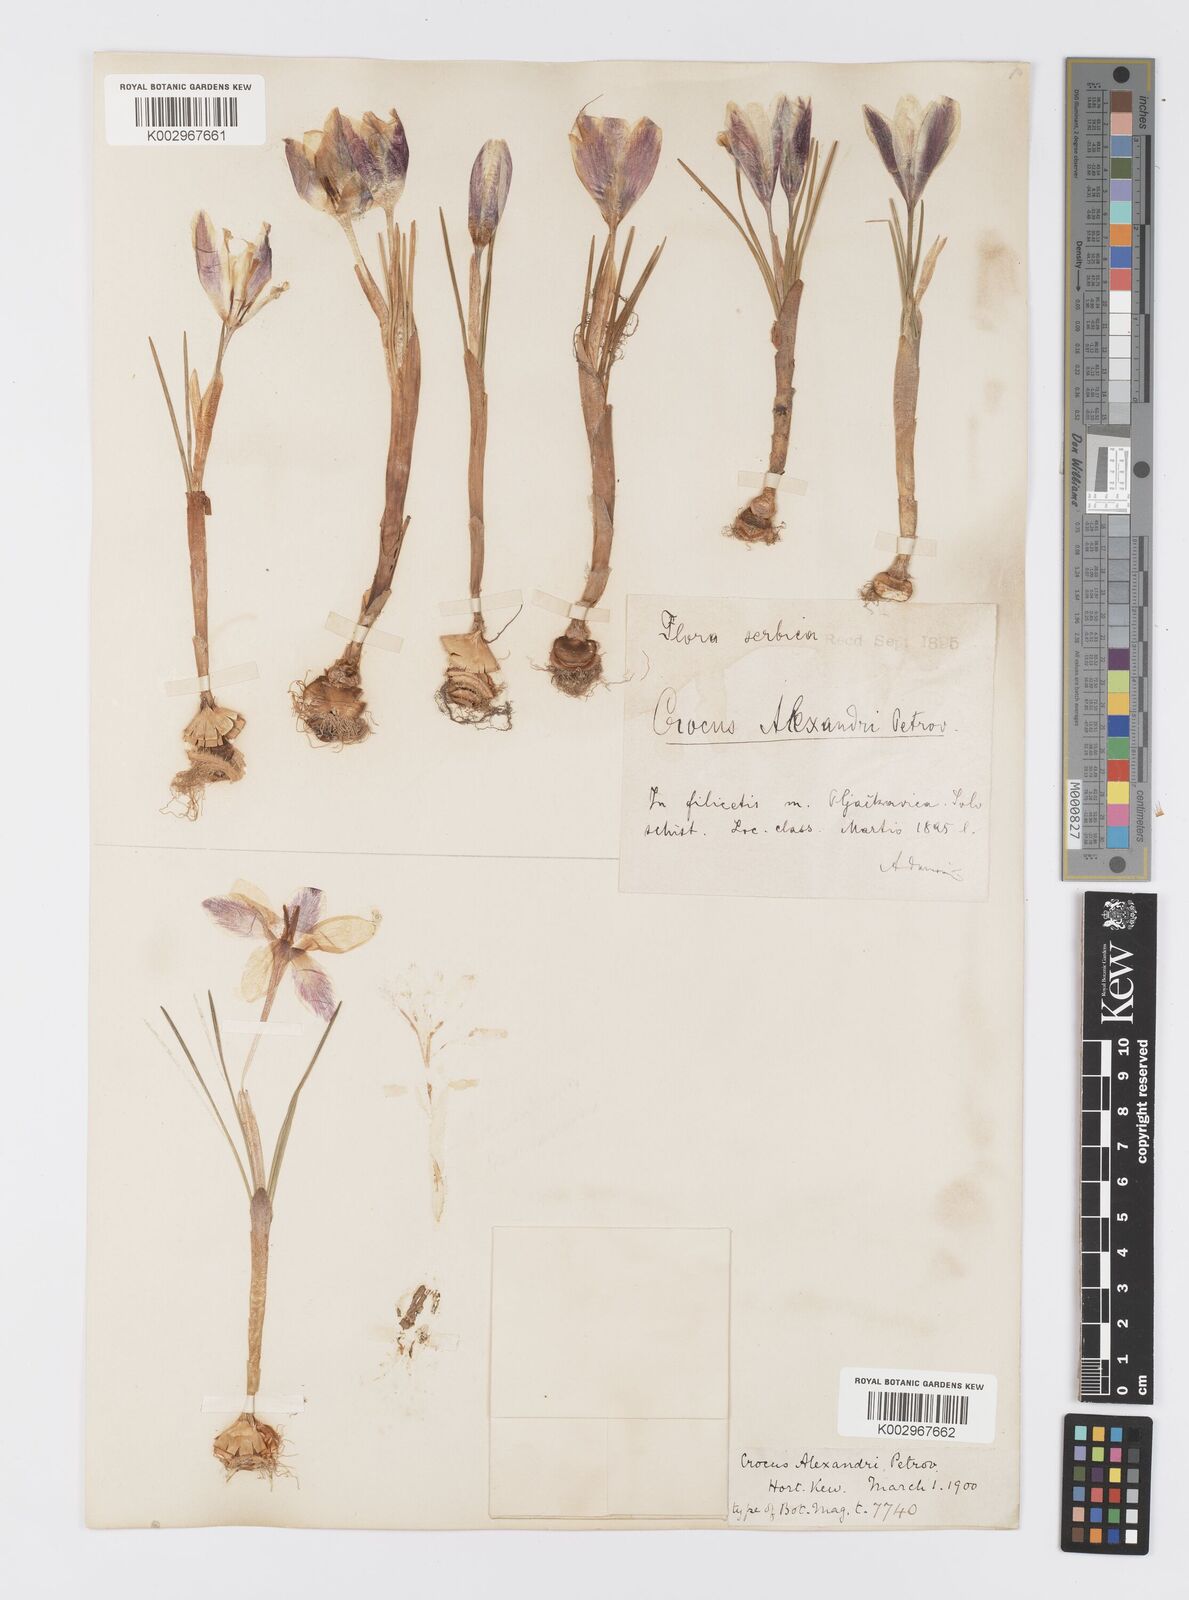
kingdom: Plantae
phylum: Tracheophyta
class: Liliopsida
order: Asparagales
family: Iridaceae
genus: Crocus
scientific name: Crocus alexandri
